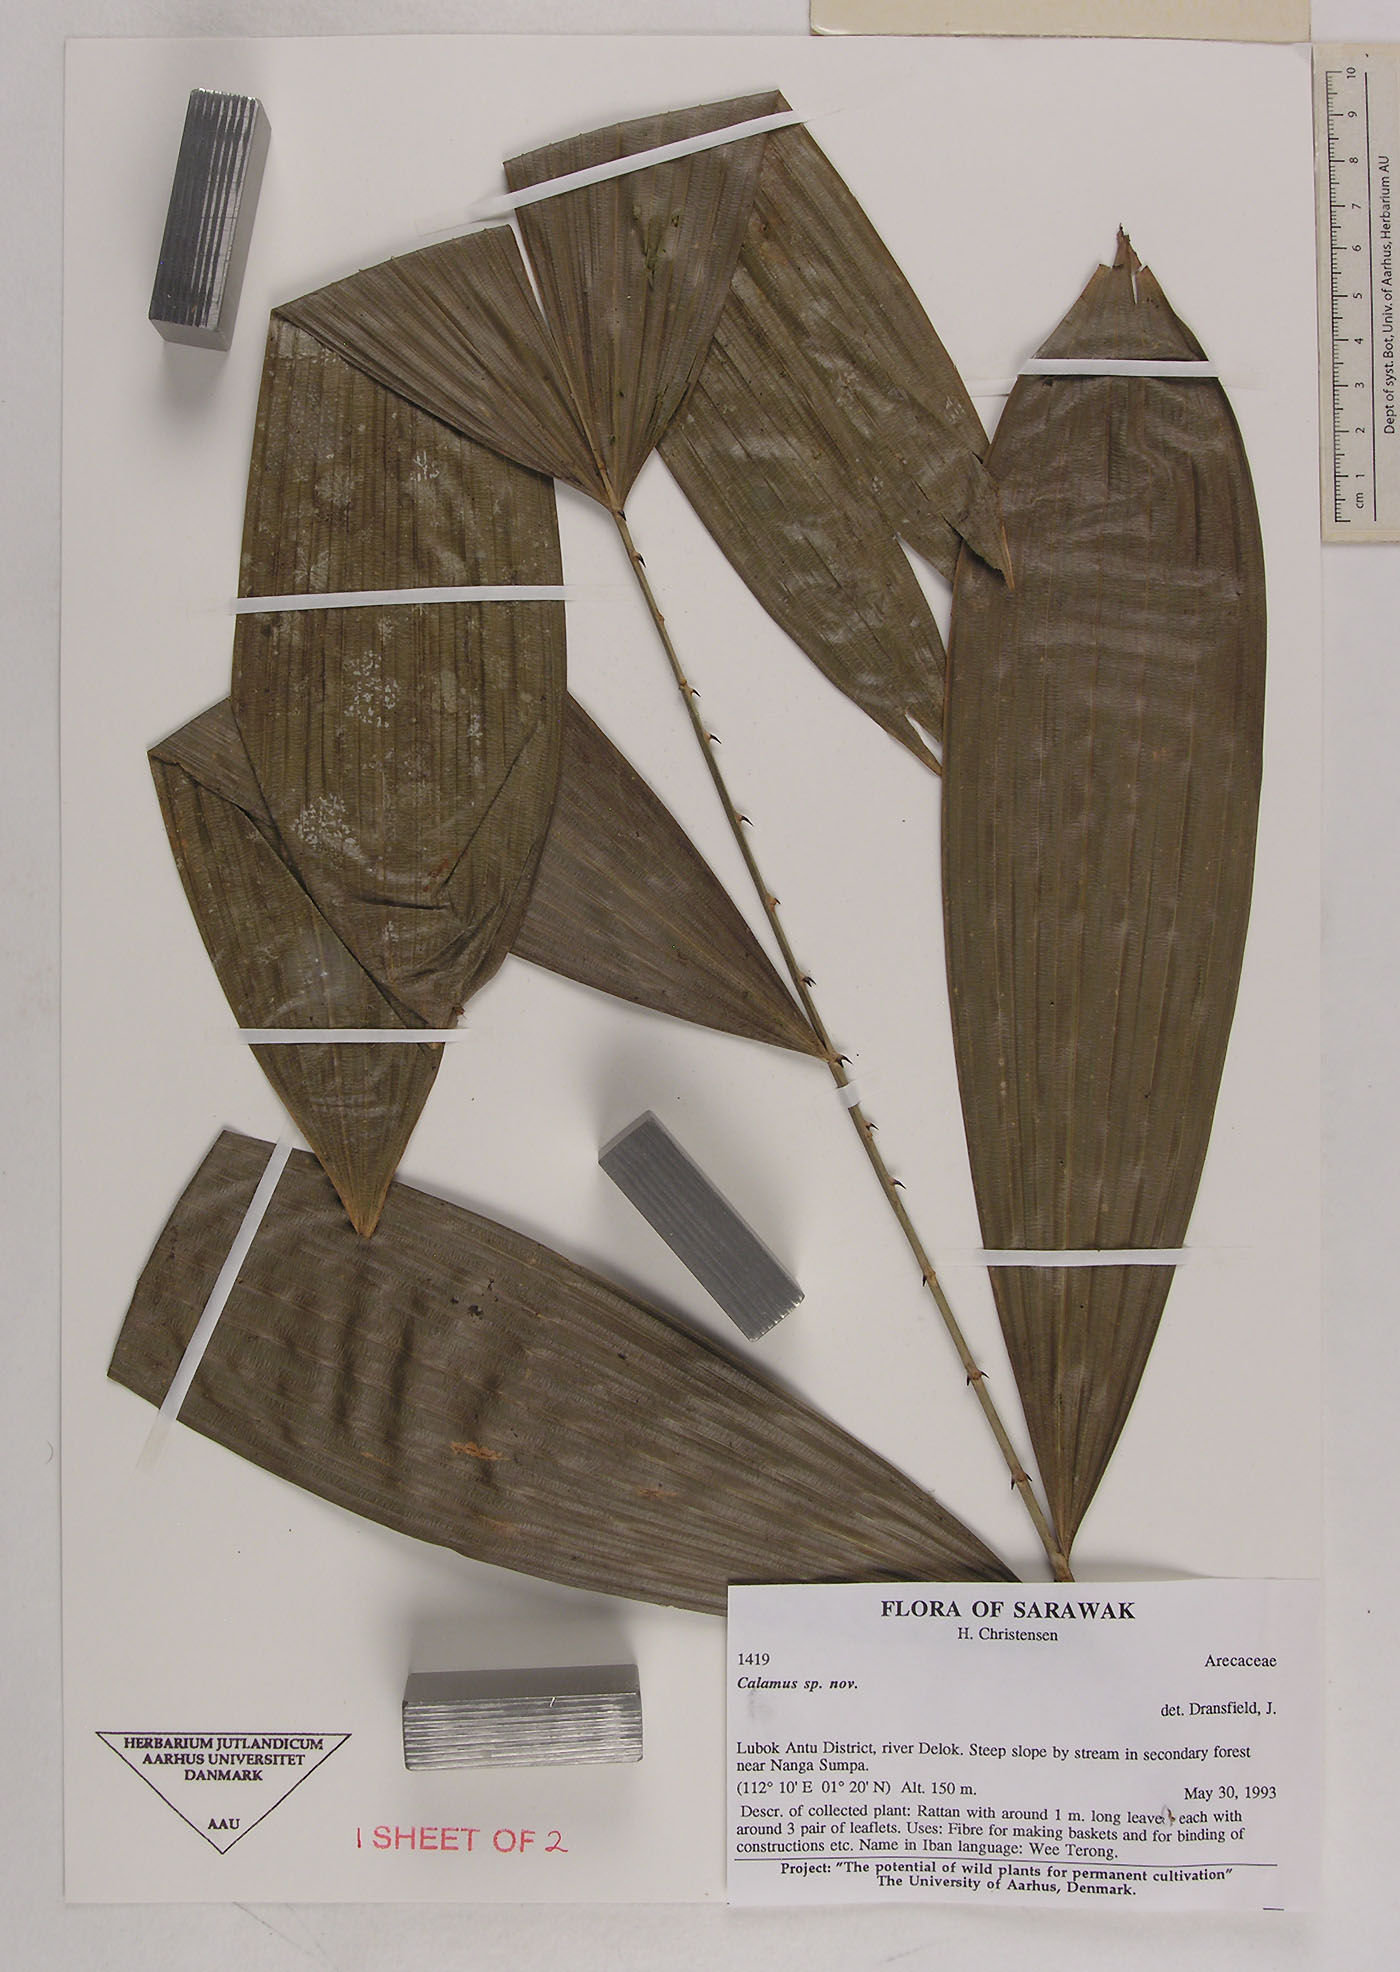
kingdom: Plantae
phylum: Tracheophyta
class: Liliopsida
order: Arecales
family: Arecaceae
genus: Calamus
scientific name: Calamus
